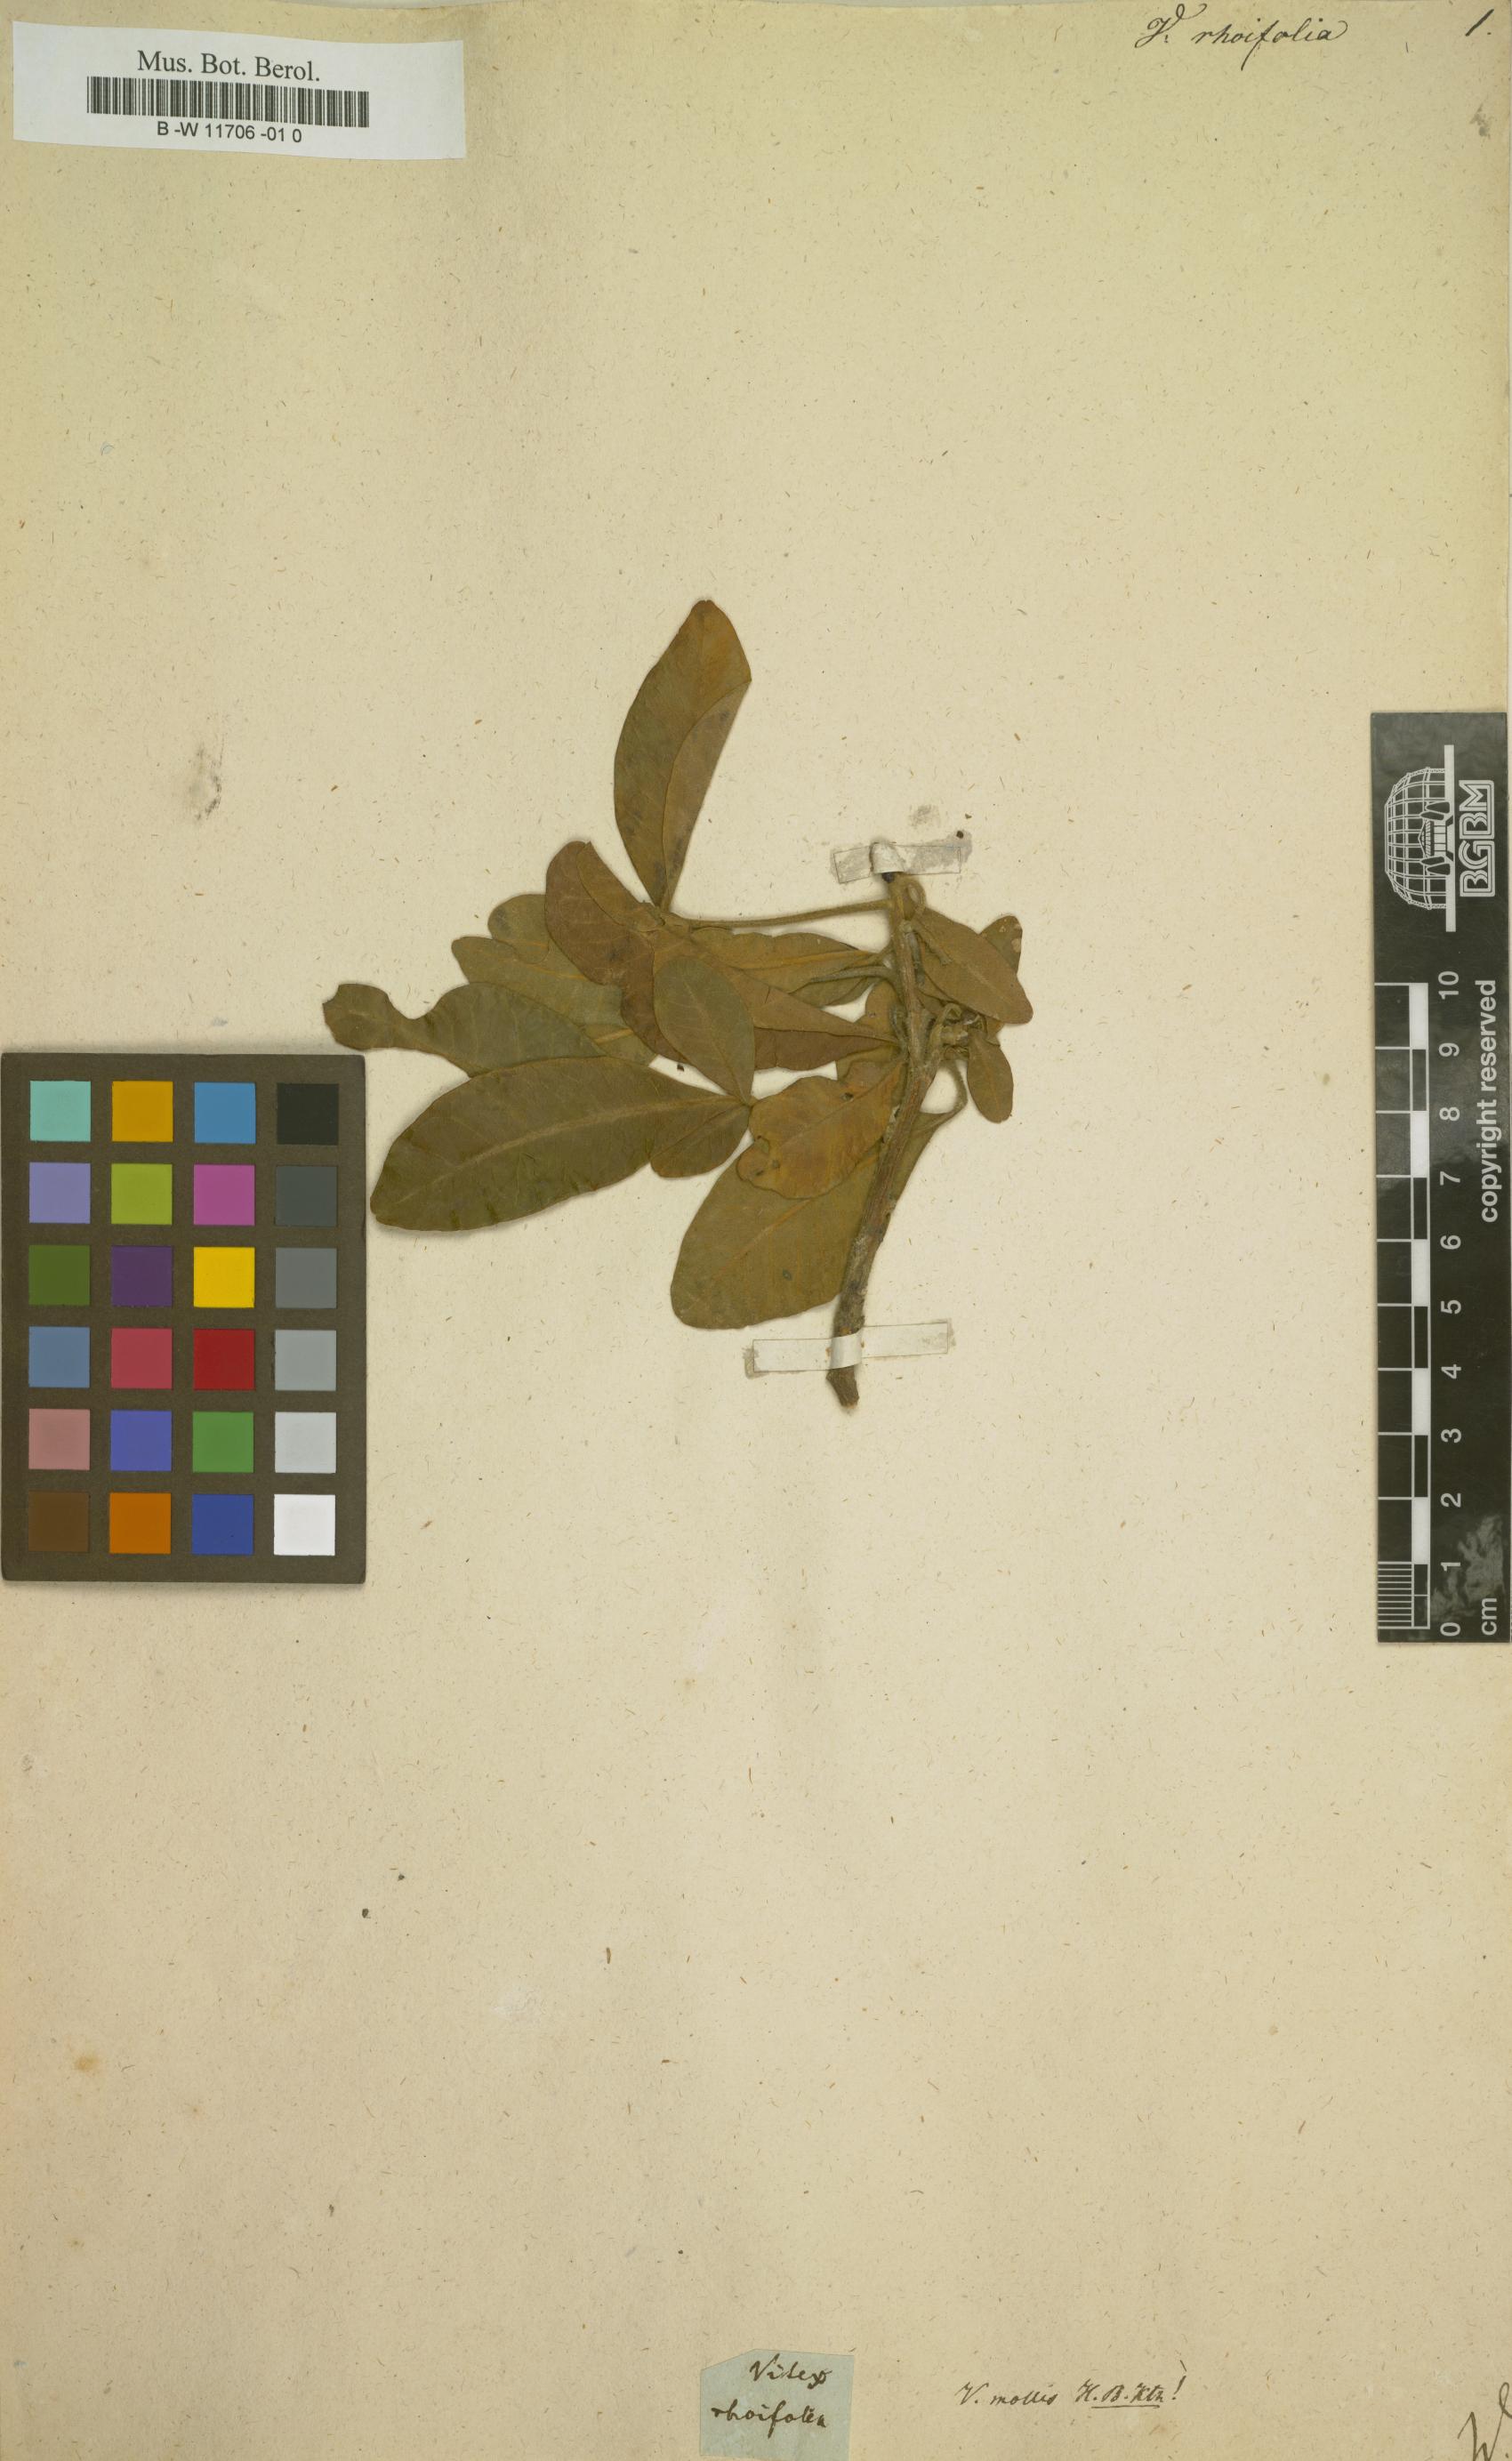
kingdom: Plantae
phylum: Tracheophyta
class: Magnoliopsida
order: Lamiales
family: Lamiaceae
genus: Vitex
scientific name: Vitex
